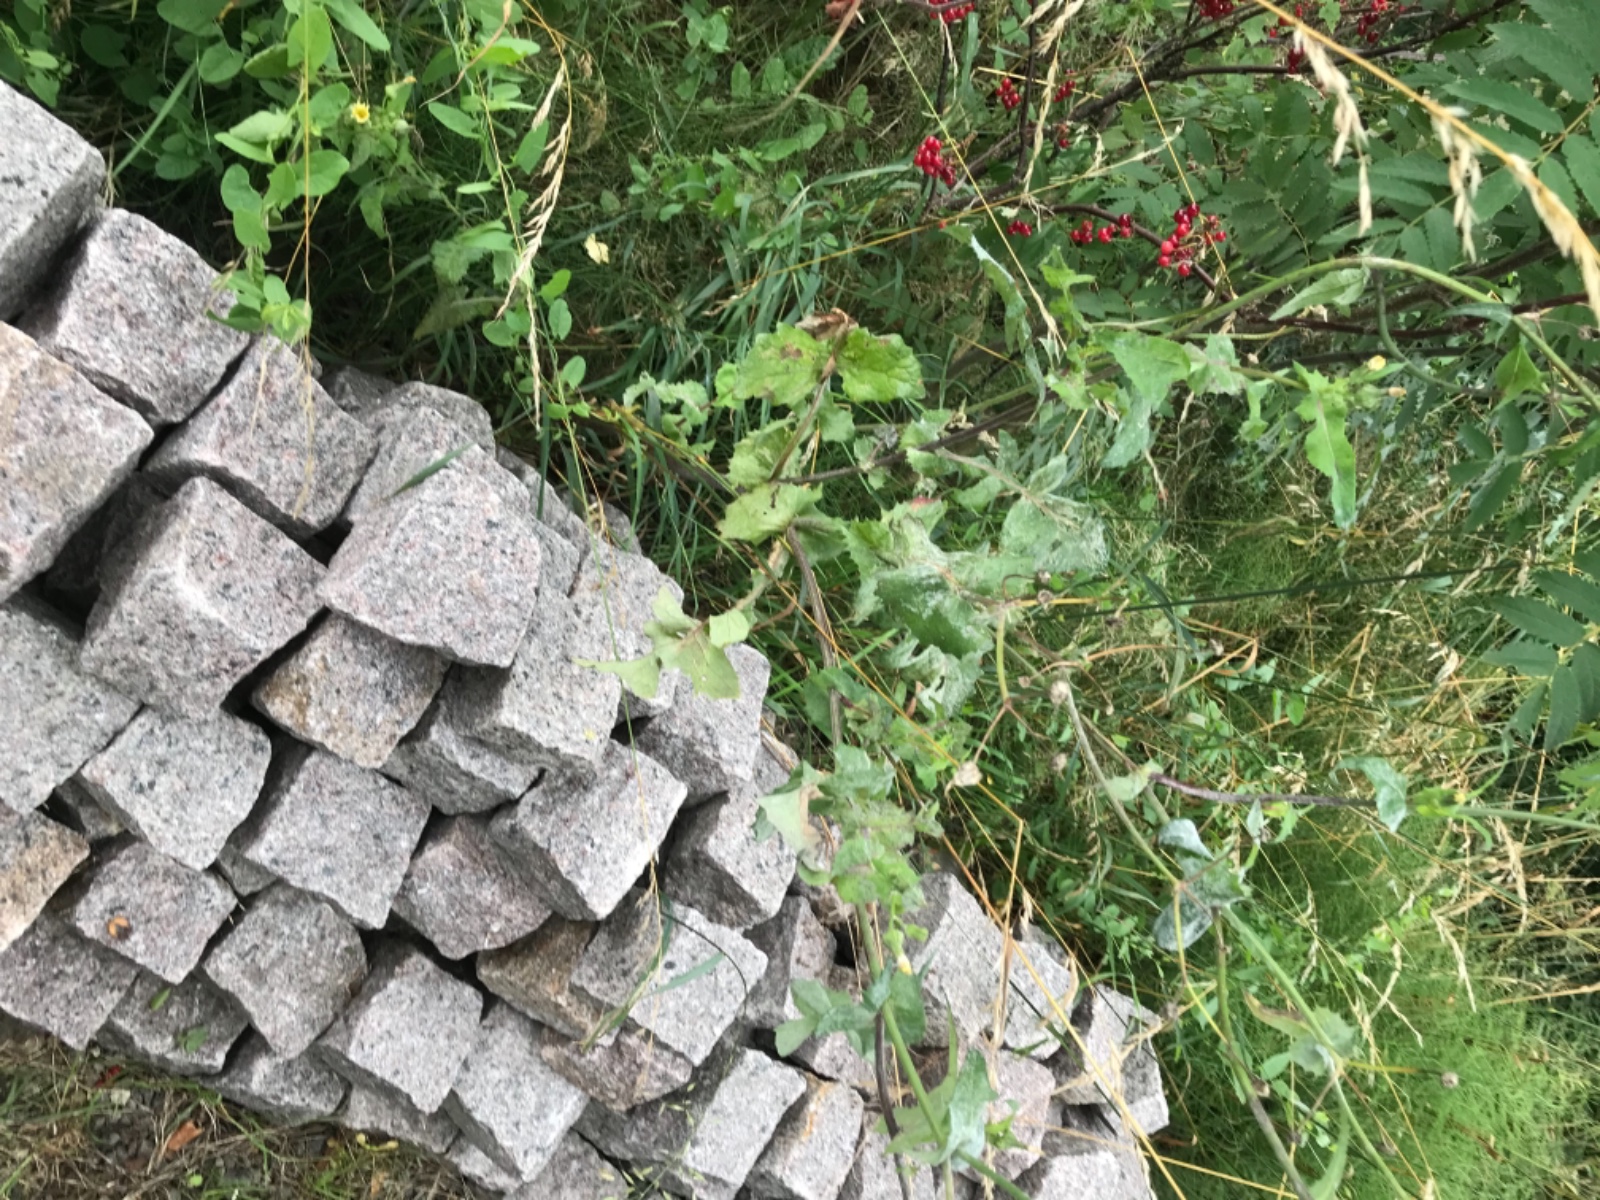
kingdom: Fungi
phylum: Basidiomycota
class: Pucciniomycetes
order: Pucciniales
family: Coleosporiaceae
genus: Coleosporium
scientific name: Coleosporium sonchi
